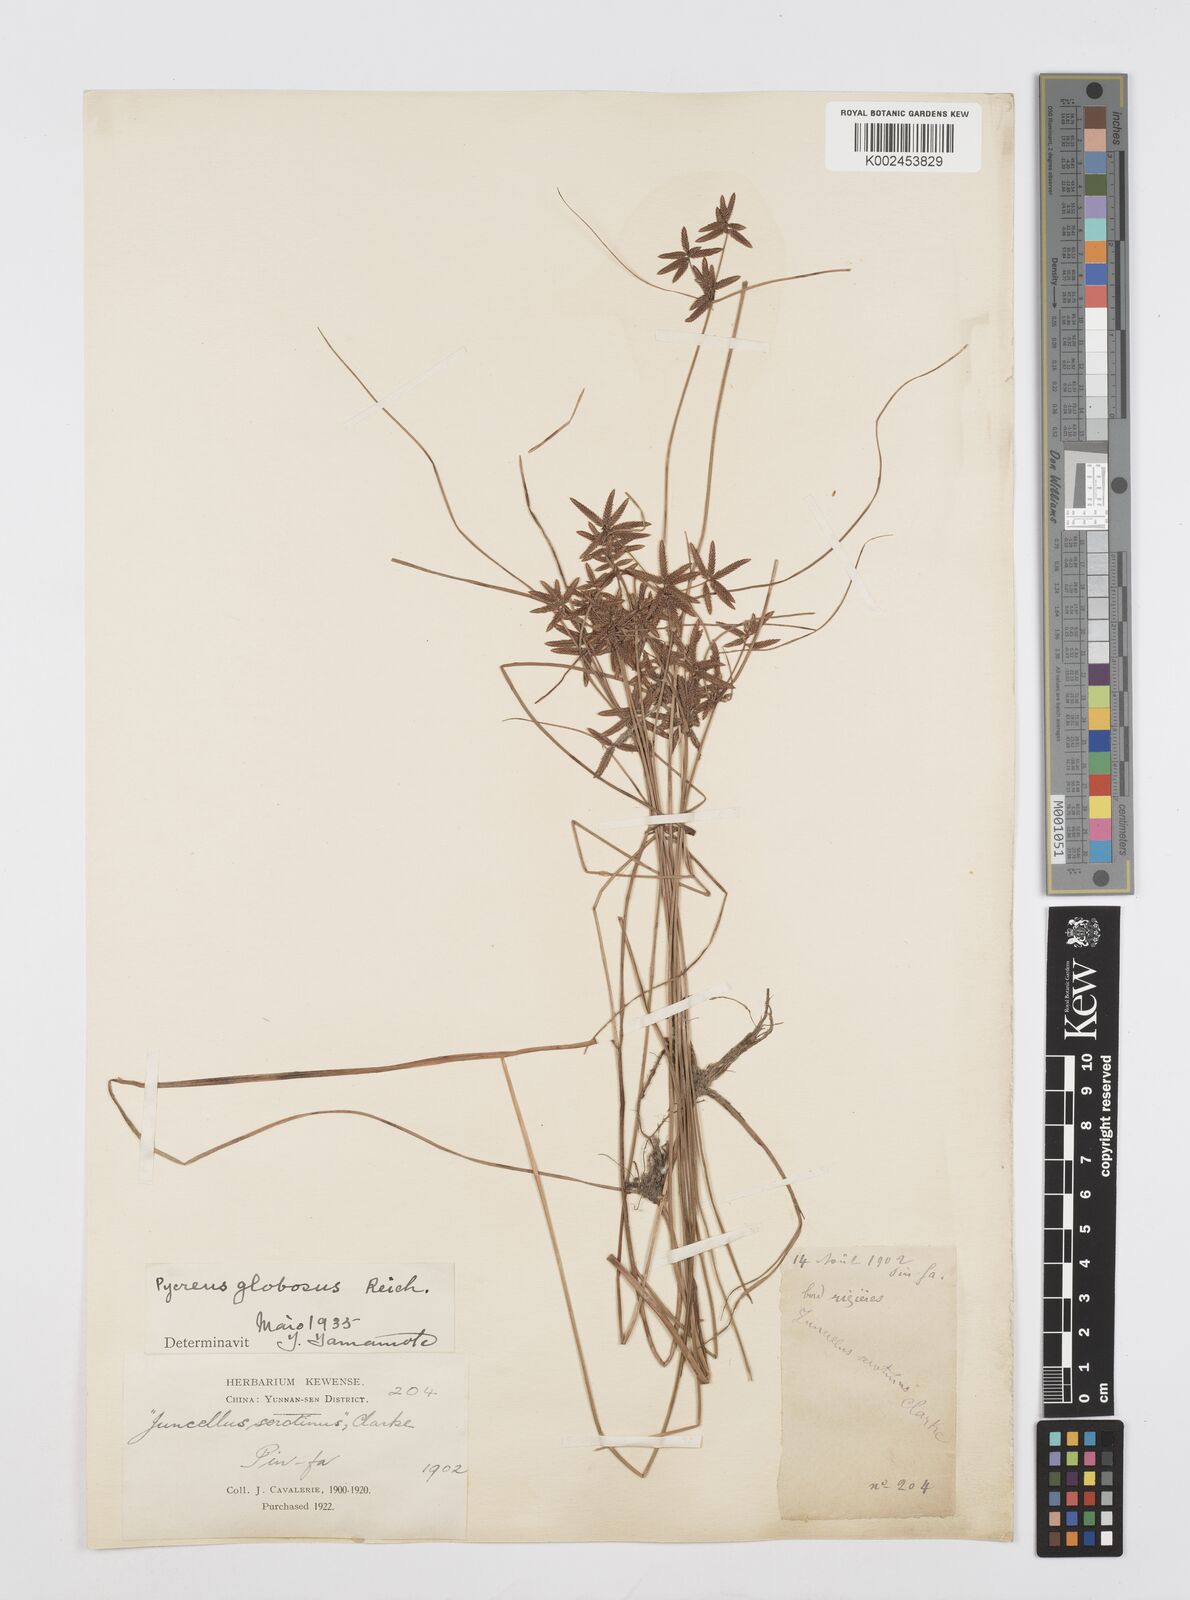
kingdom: Plantae
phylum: Tracheophyta
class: Liliopsida
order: Poales
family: Cyperaceae
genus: Cyperus
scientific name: Cyperus flavidus
